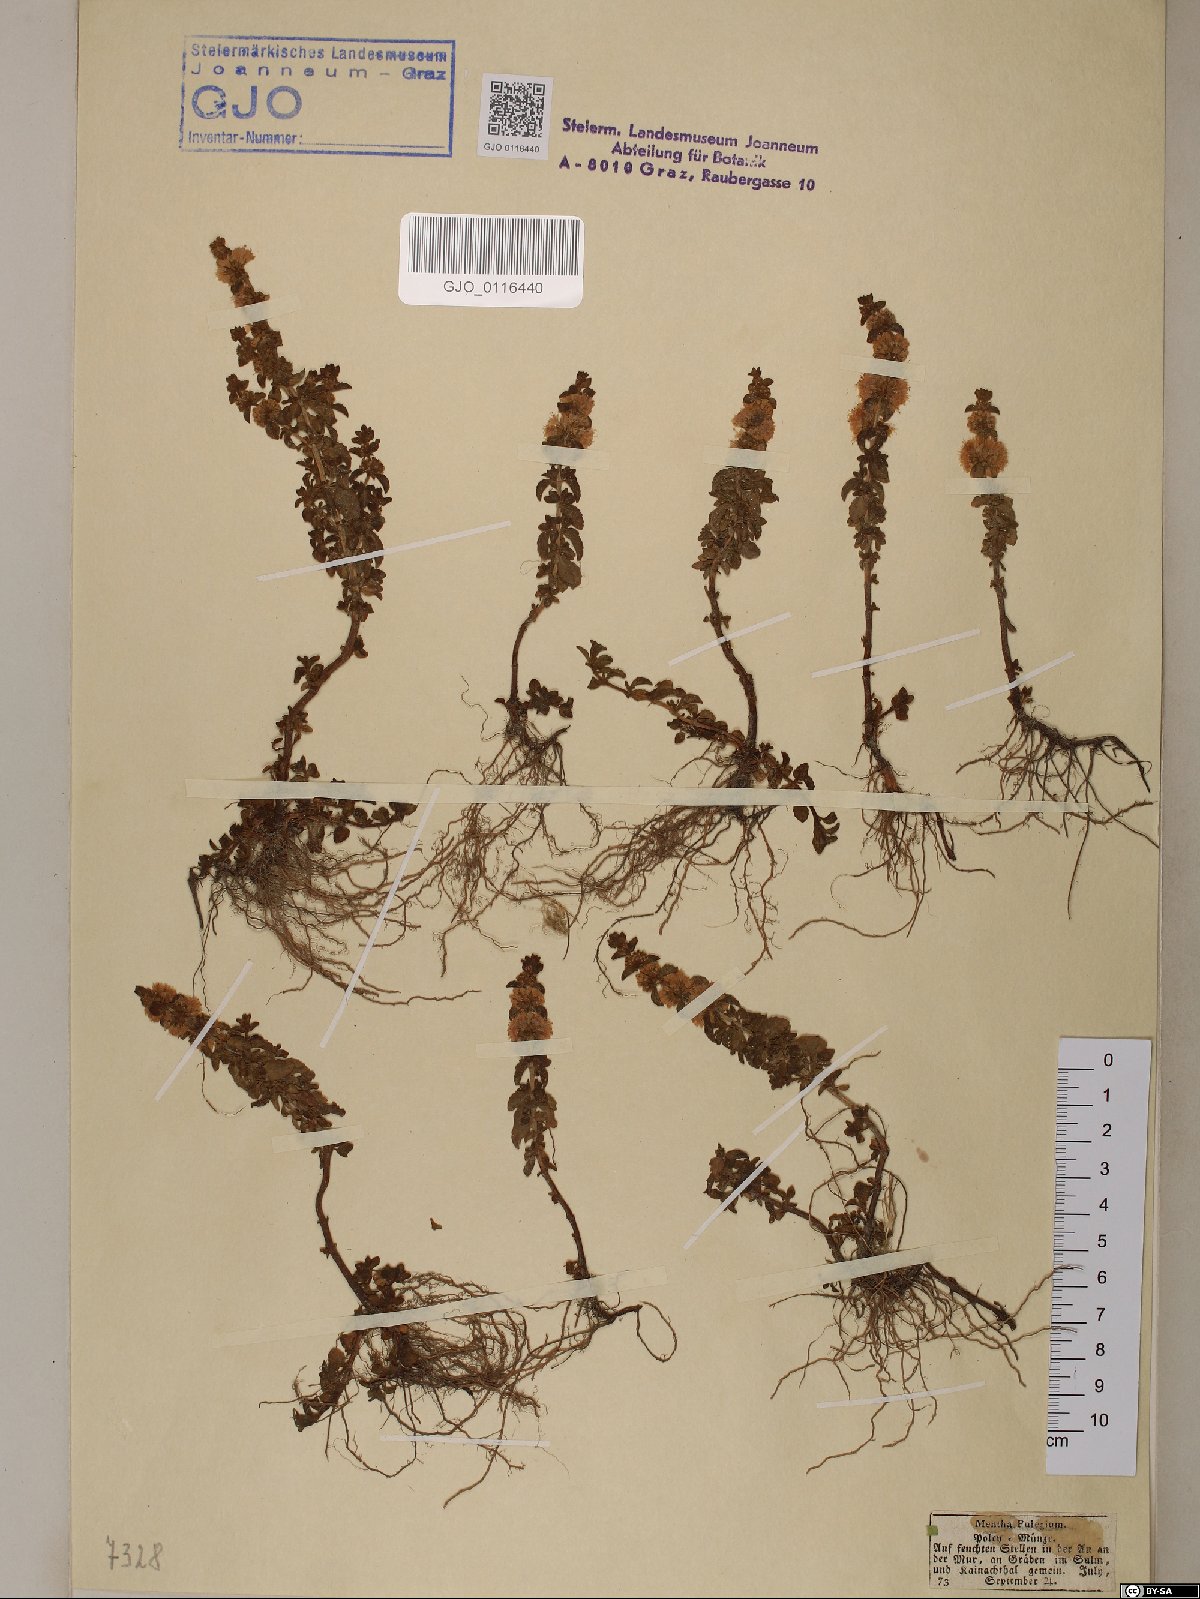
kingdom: Plantae
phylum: Tracheophyta
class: Magnoliopsida
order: Lamiales
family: Lamiaceae
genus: Mentha
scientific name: Mentha pulegium
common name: Pennyroyal
